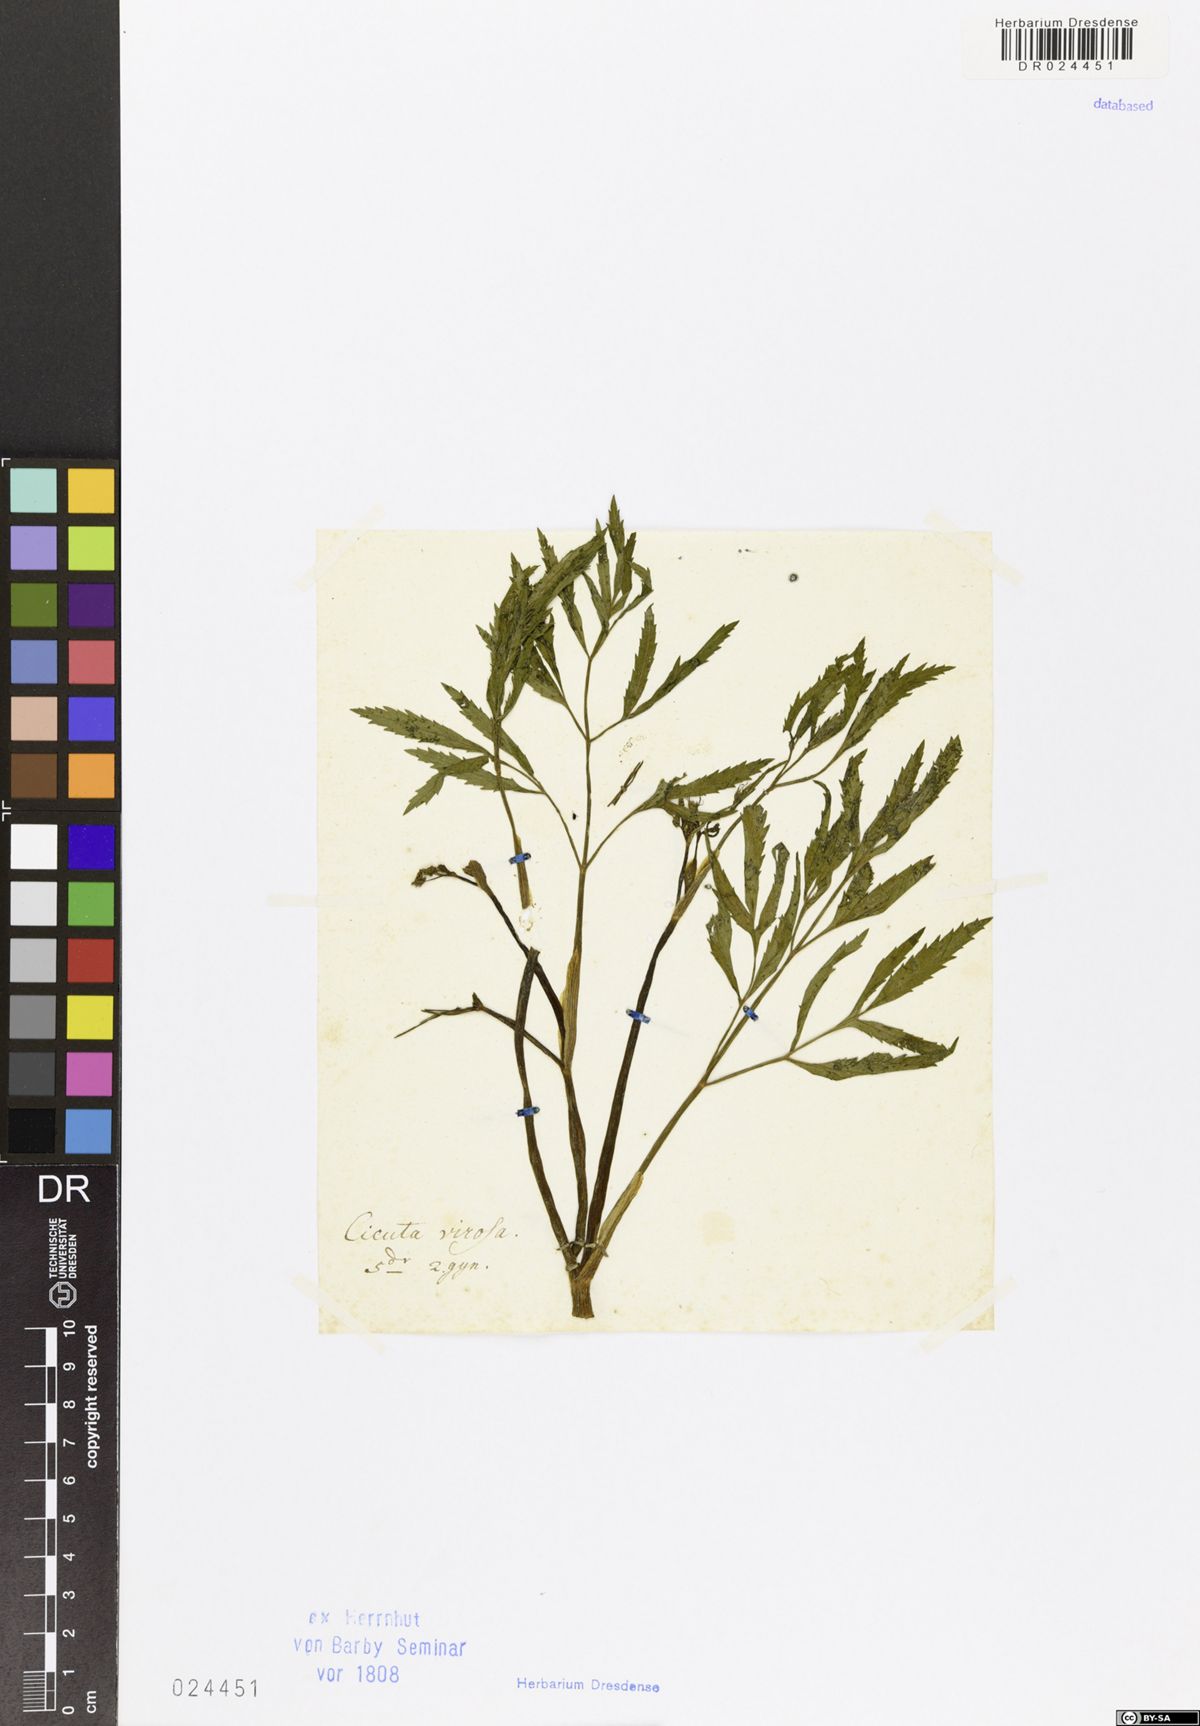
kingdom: Plantae
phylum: Tracheophyta
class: Magnoliopsida
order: Apiales
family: Apiaceae
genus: Cicuta
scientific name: Cicuta virosa
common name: Cowbane
